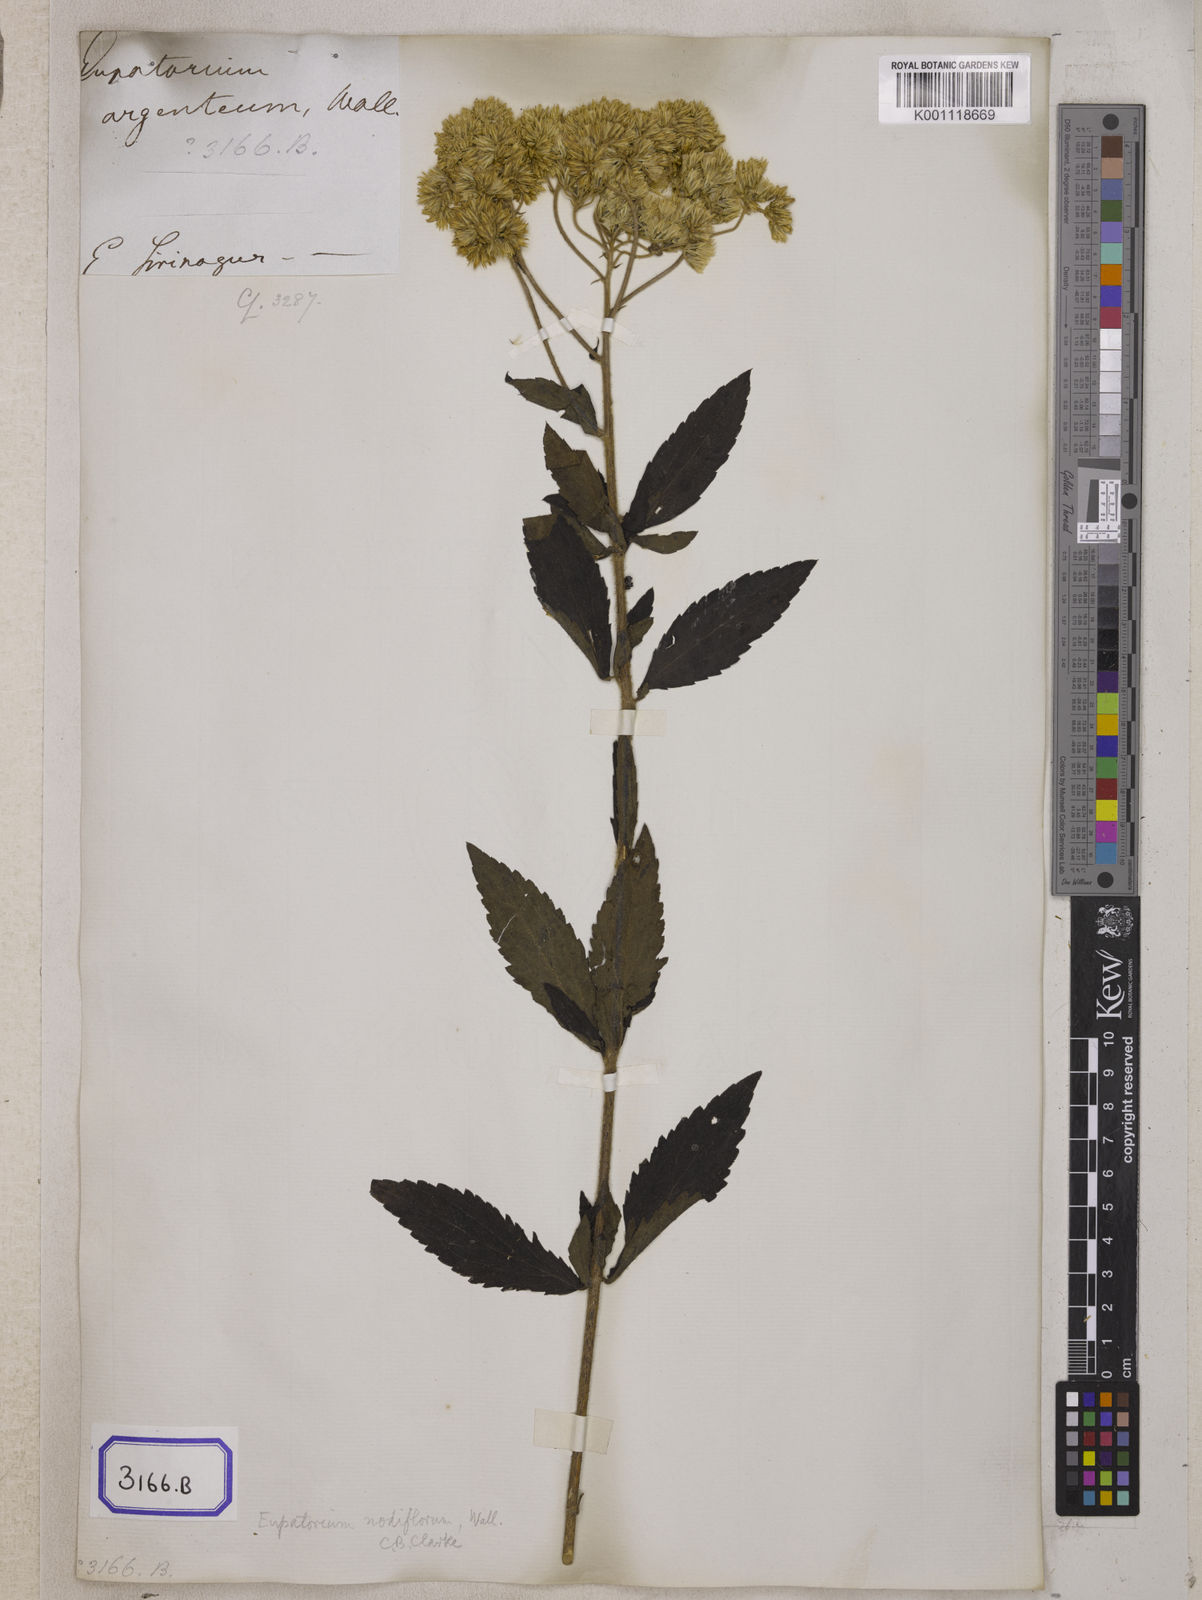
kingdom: Plantae
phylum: Tracheophyta
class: Magnoliopsida
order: Asterales
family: Asteraceae
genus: Eupatorium
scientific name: Eupatorium
